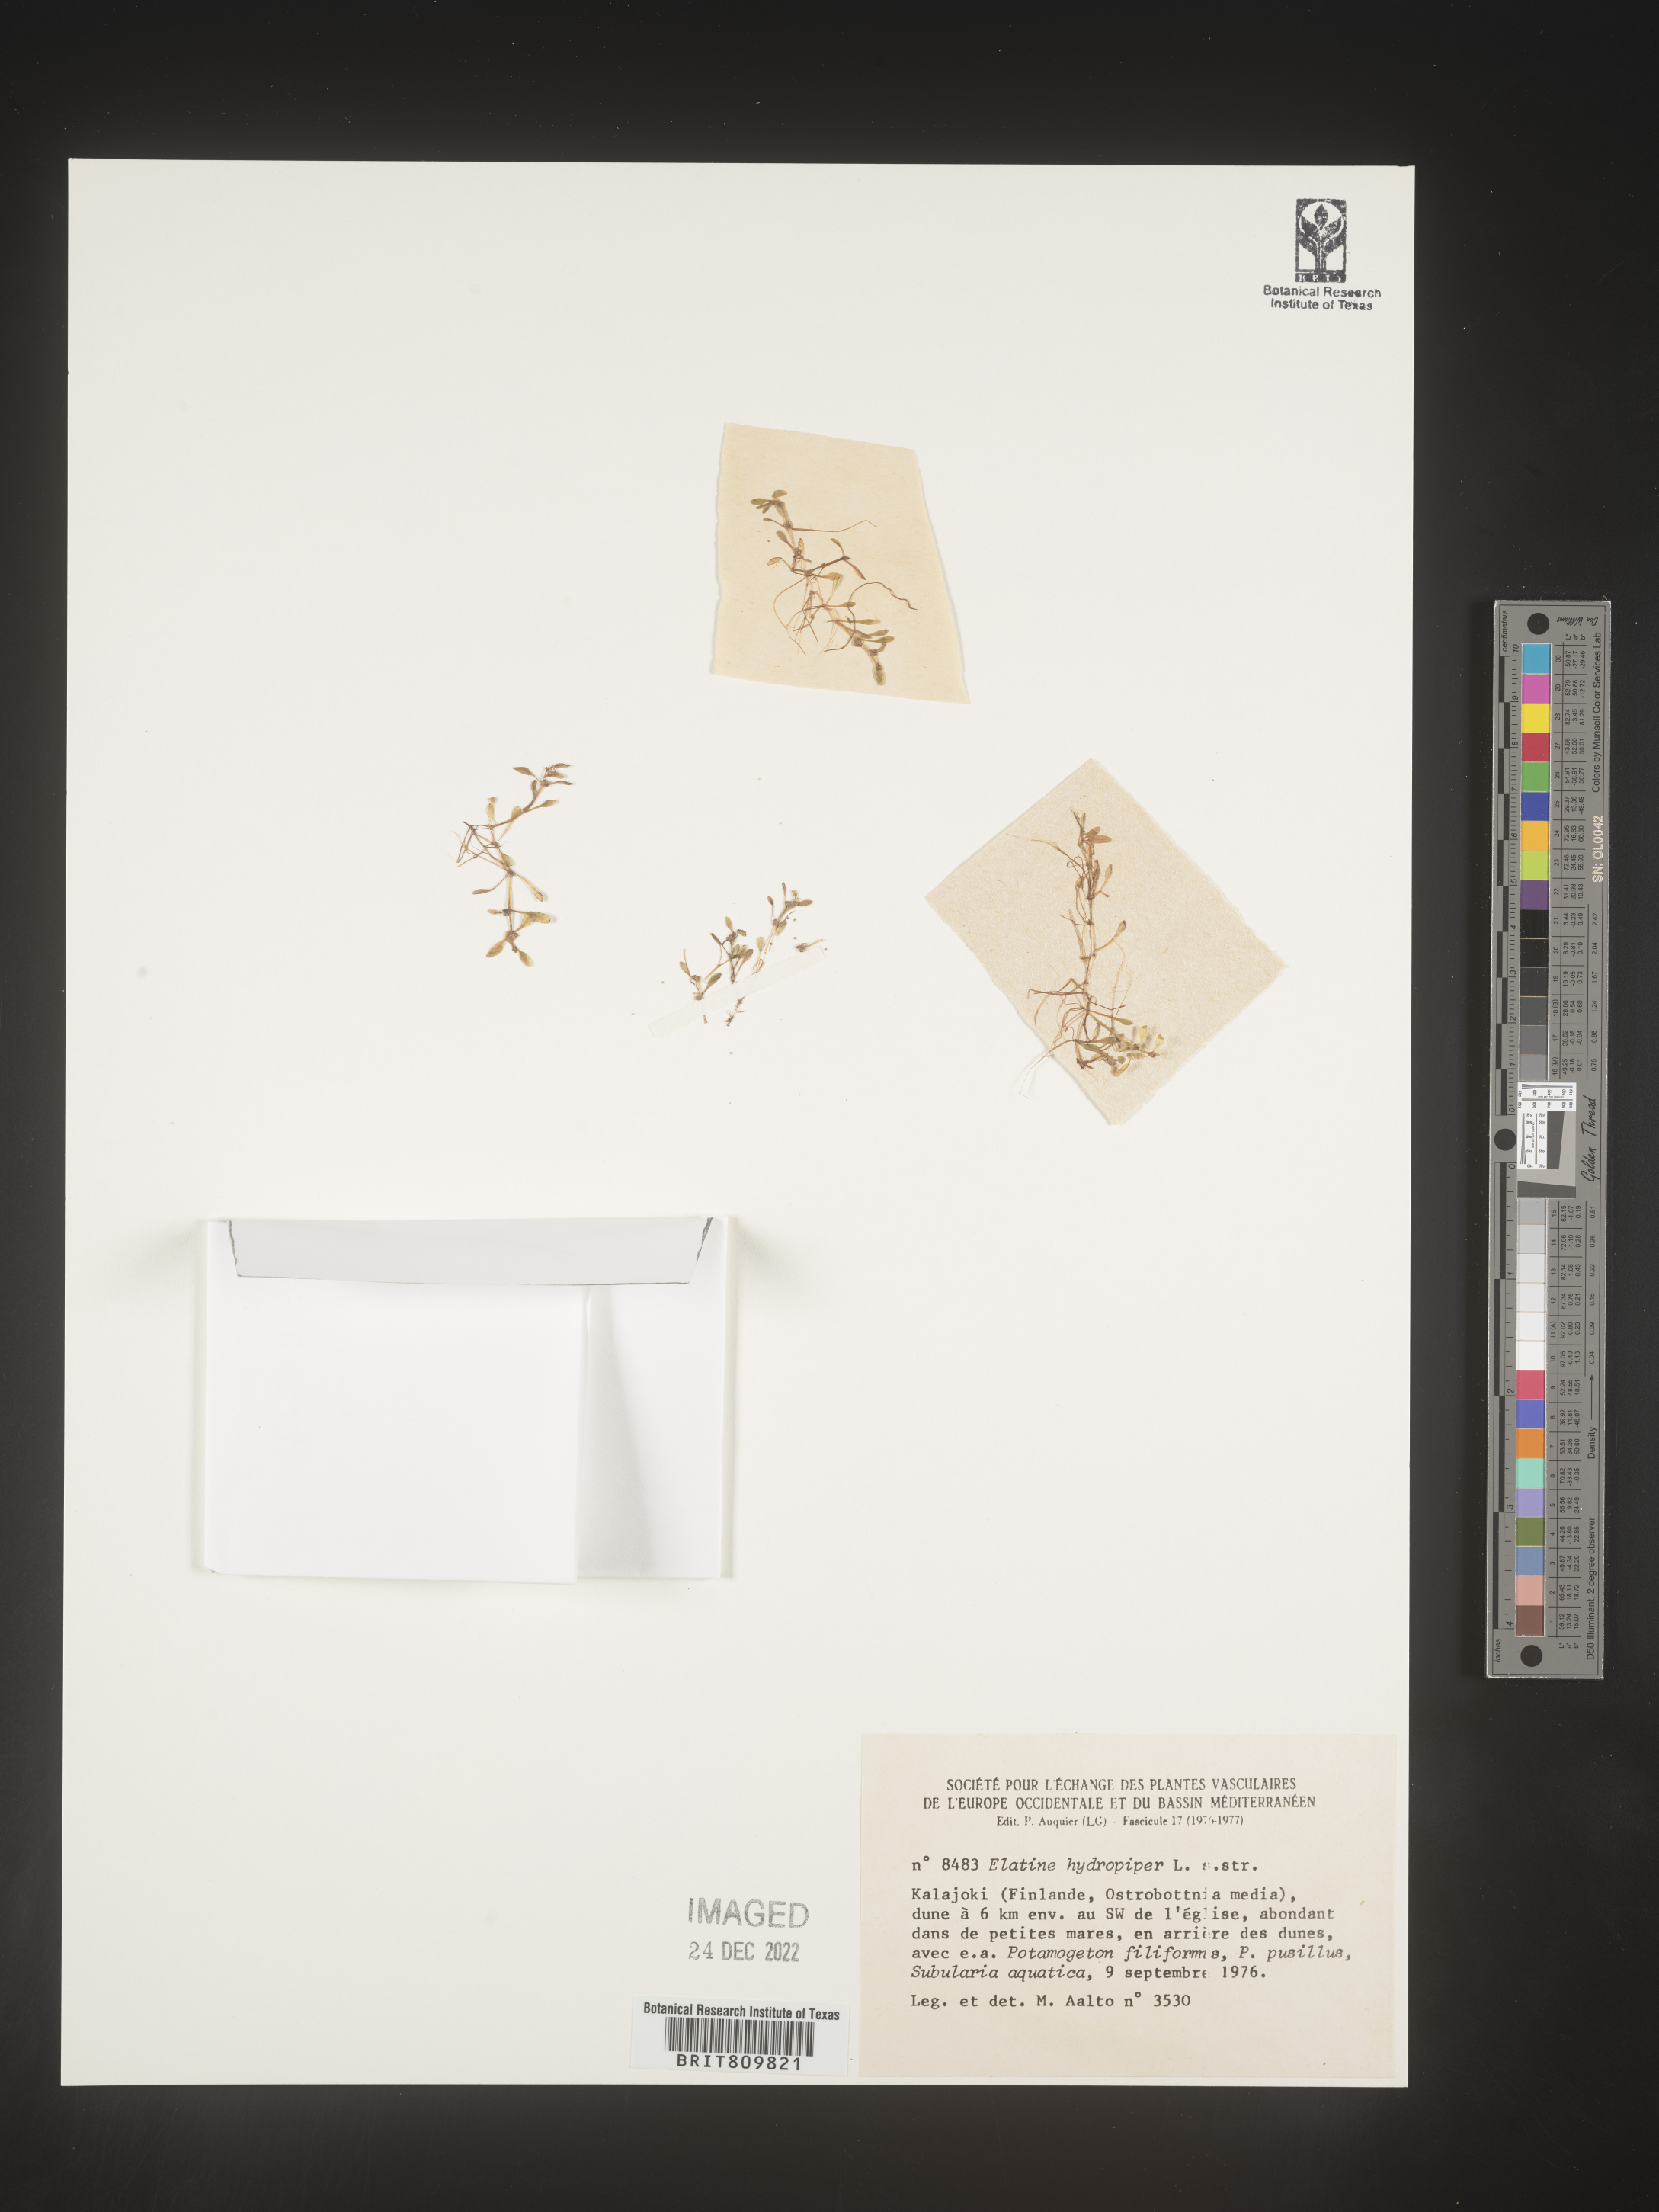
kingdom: Plantae
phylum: Tracheophyta
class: Magnoliopsida
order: Malpighiales
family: Elatinaceae
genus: Elatine
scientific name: Elatine
